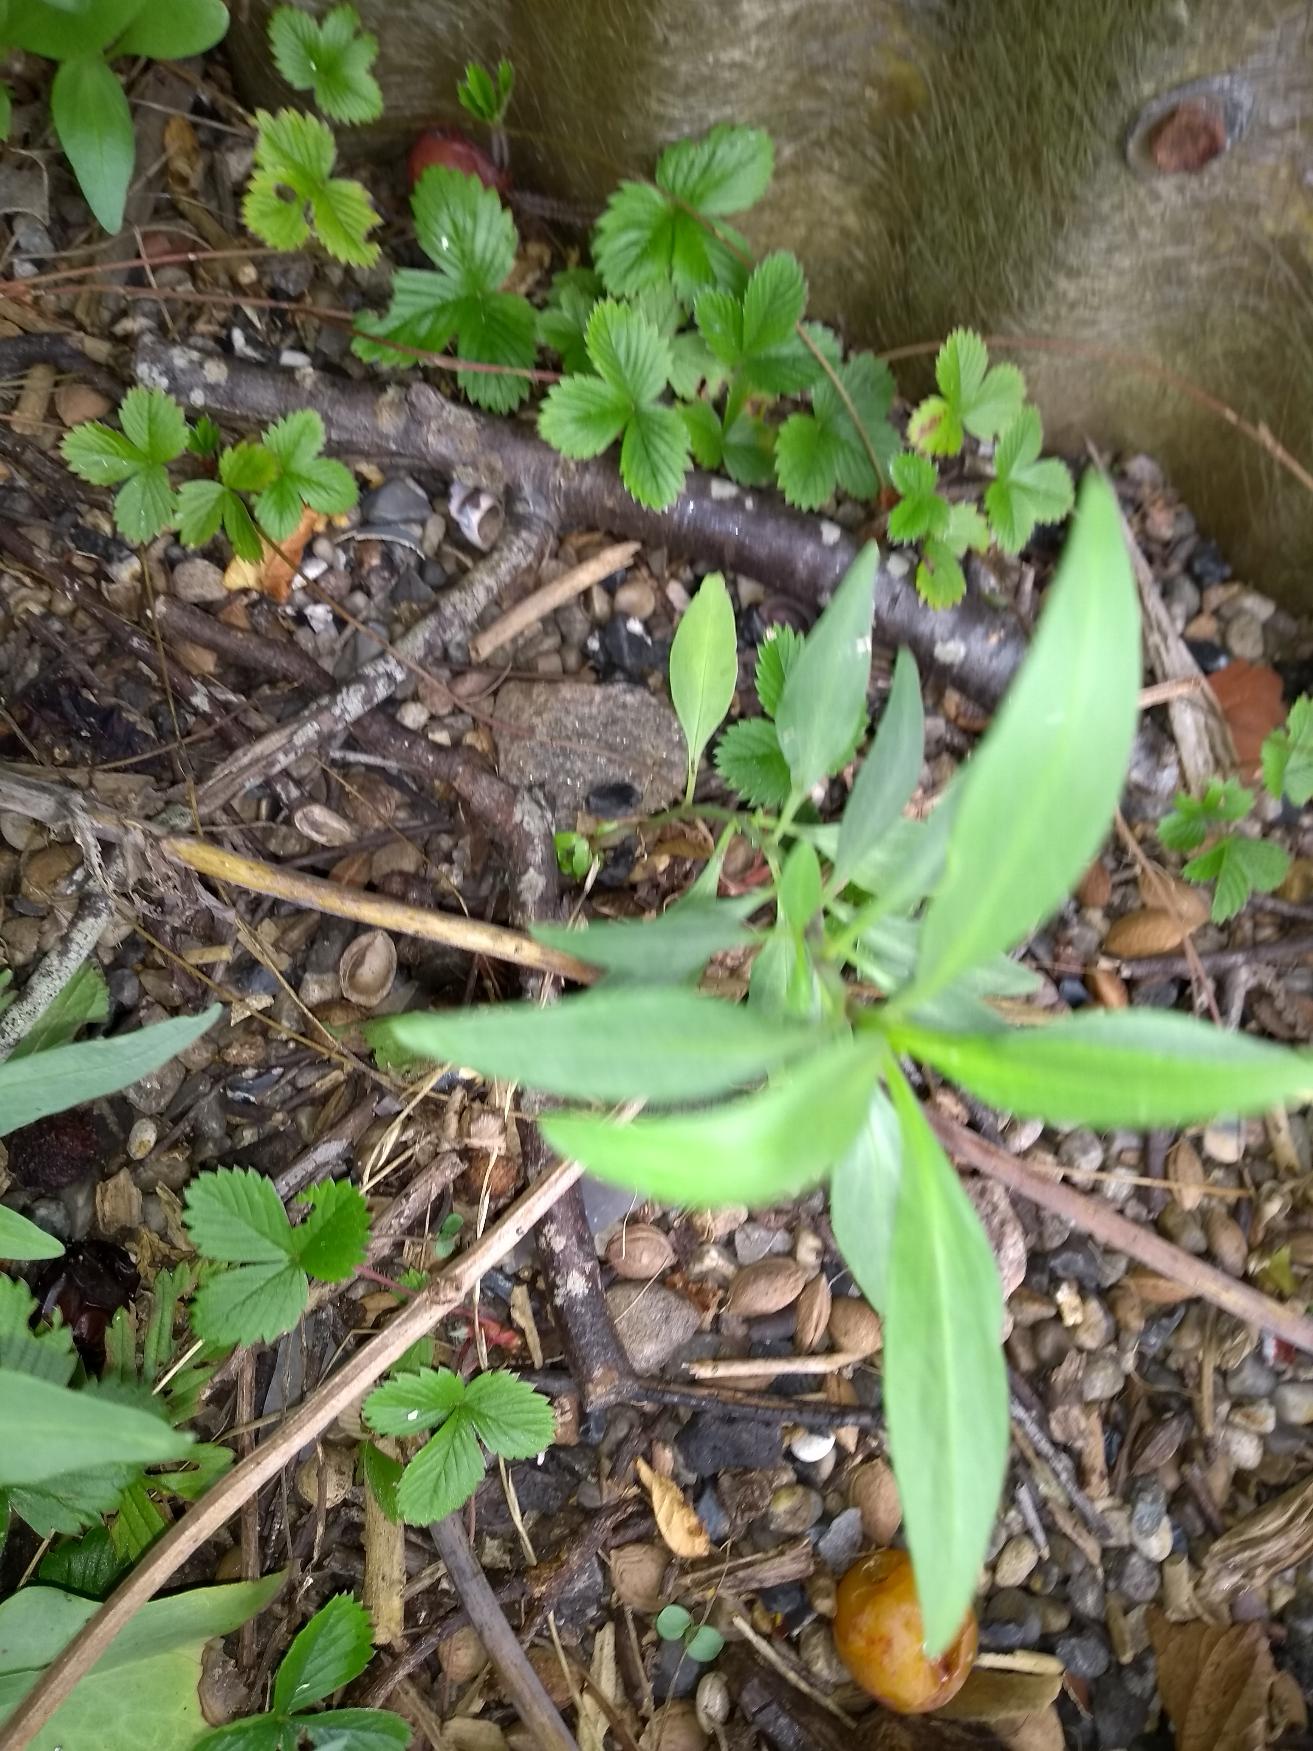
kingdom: Plantae
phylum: Tracheophyta
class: Magnoliopsida
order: Dipsacales
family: Caprifoliaceae
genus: Centranthus
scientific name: Centranthus ruber
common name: Sporebaldrian
